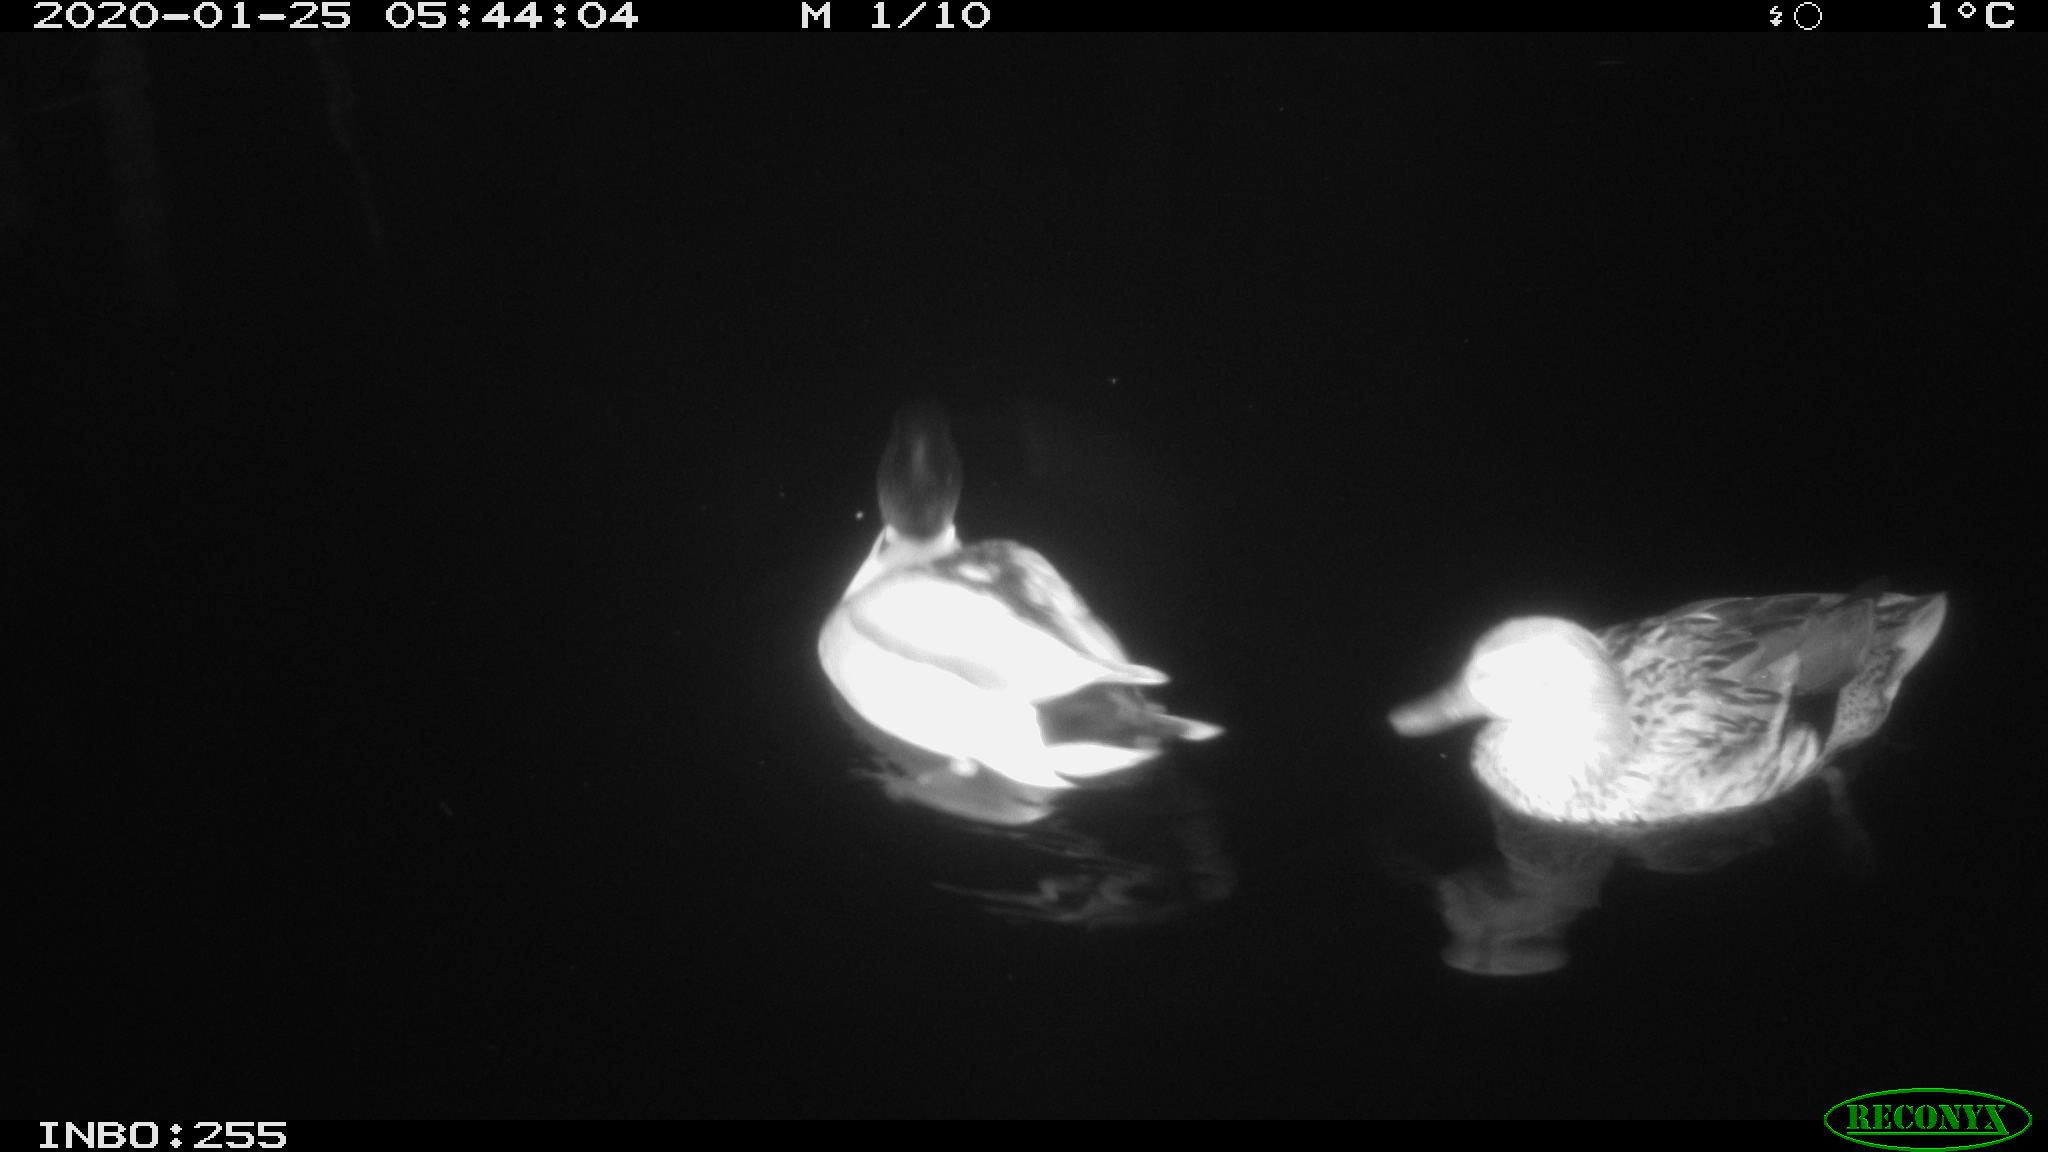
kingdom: Animalia
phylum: Chordata
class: Aves
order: Anseriformes
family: Anatidae
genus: Anas
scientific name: Anas platyrhynchos
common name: Mallard
